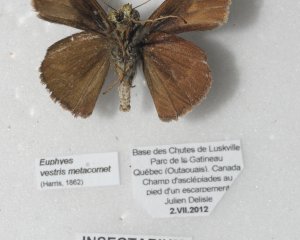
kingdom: Animalia
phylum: Arthropoda
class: Insecta
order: Lepidoptera
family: Hesperiidae
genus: Euphyes
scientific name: Euphyes vestris
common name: Dun Skipper
